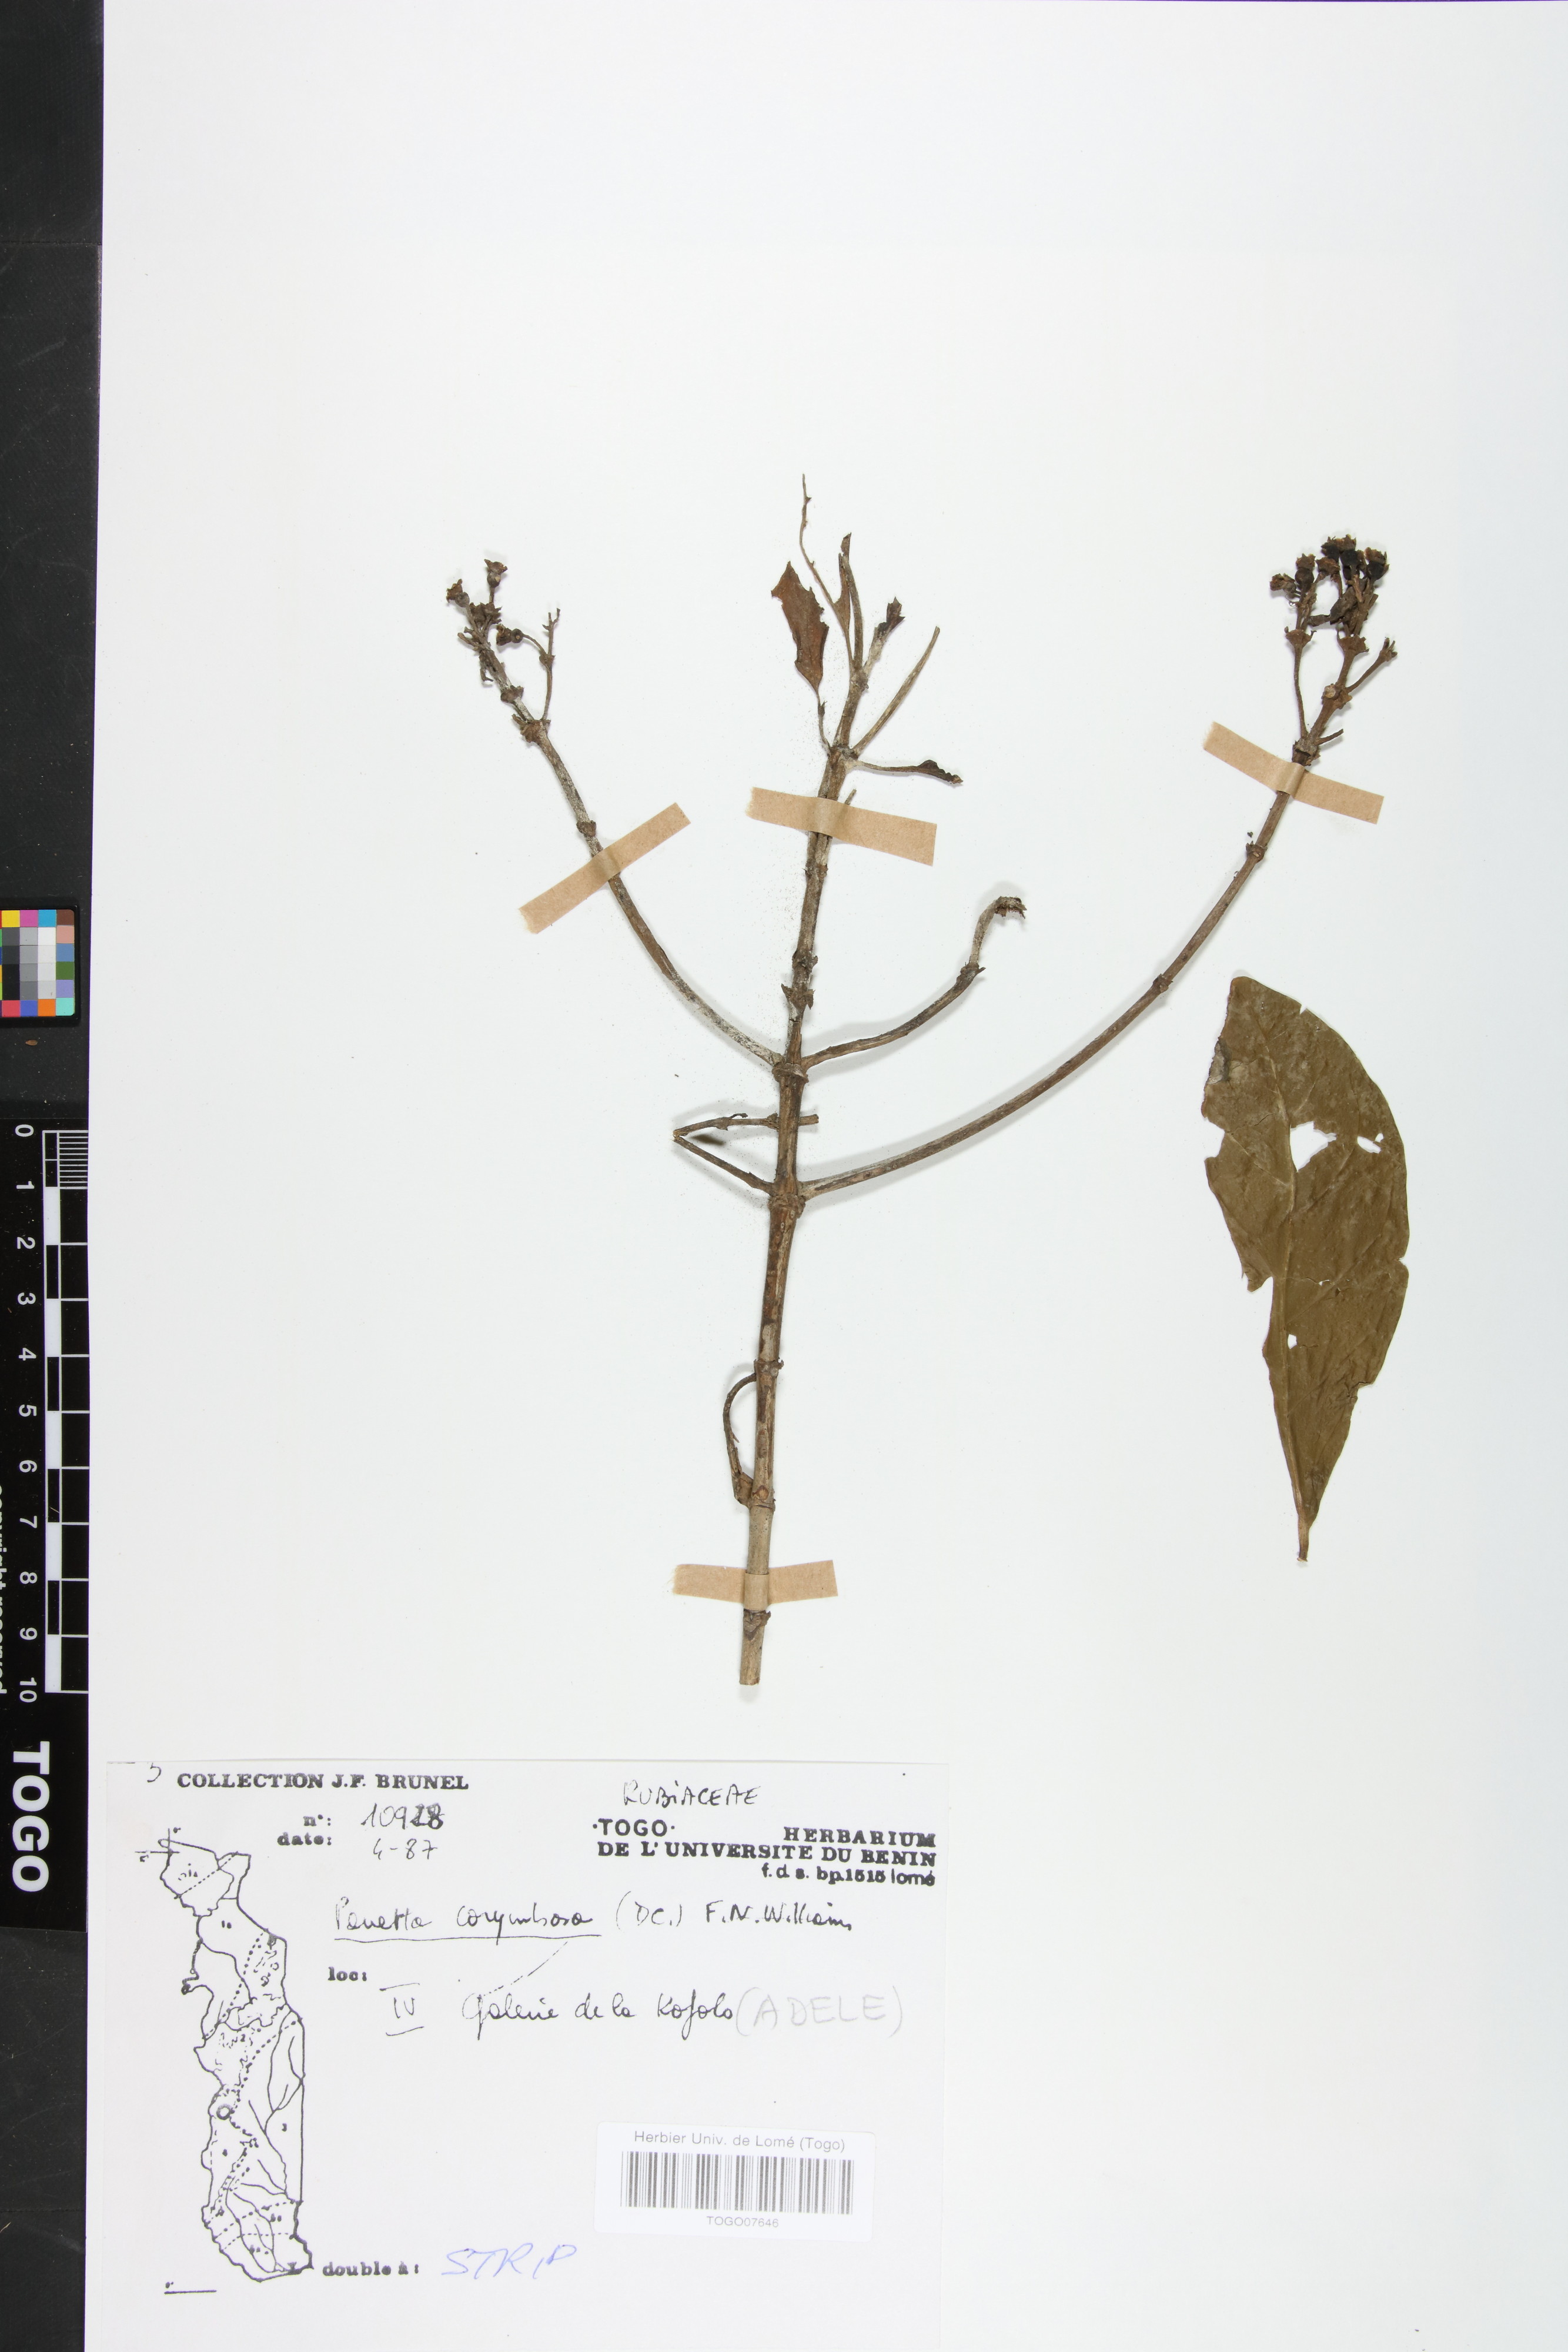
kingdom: Plantae
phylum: Tracheophyta
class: Magnoliopsida
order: Gentianales
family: Rubiaceae
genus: Pavetta
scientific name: Pavetta corymbosa
